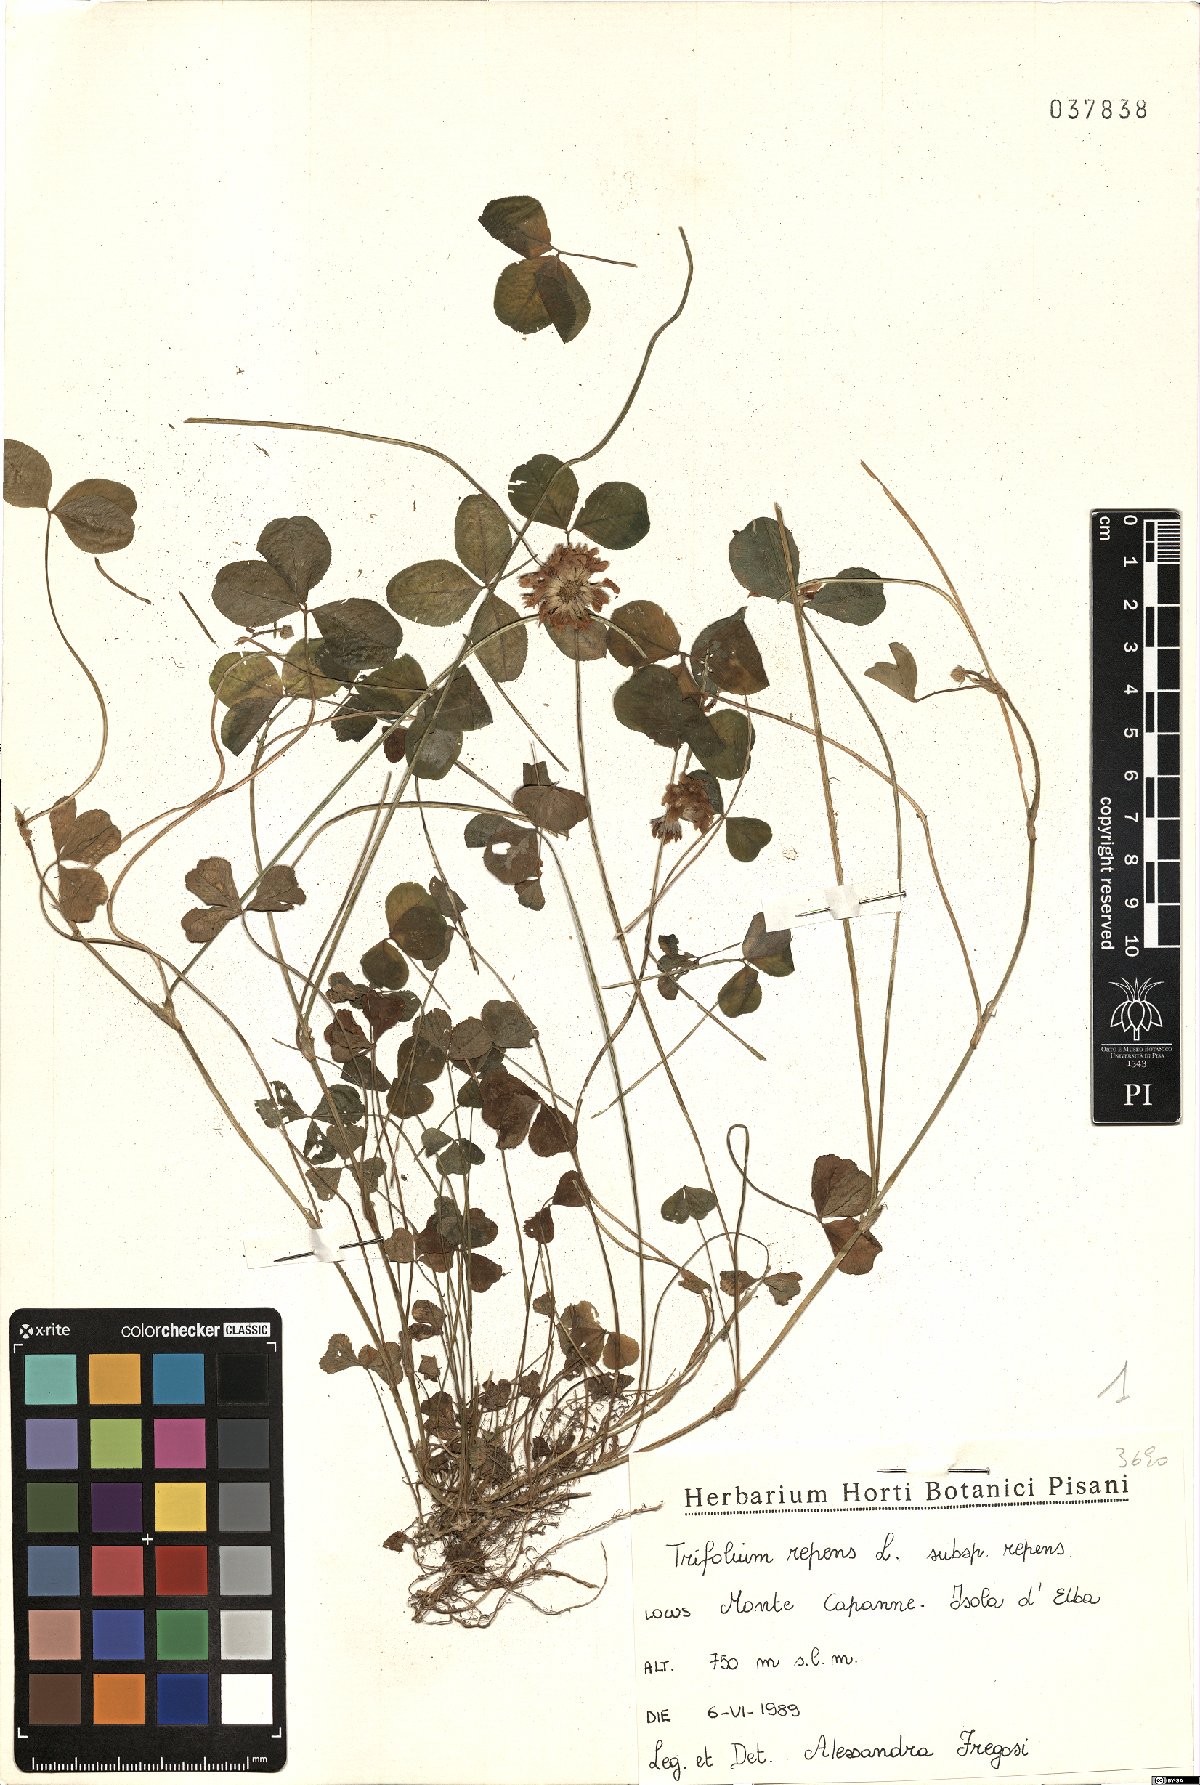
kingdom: Plantae
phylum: Tracheophyta
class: Magnoliopsida
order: Fabales
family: Fabaceae
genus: Trifolium
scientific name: Trifolium repens
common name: White clover
